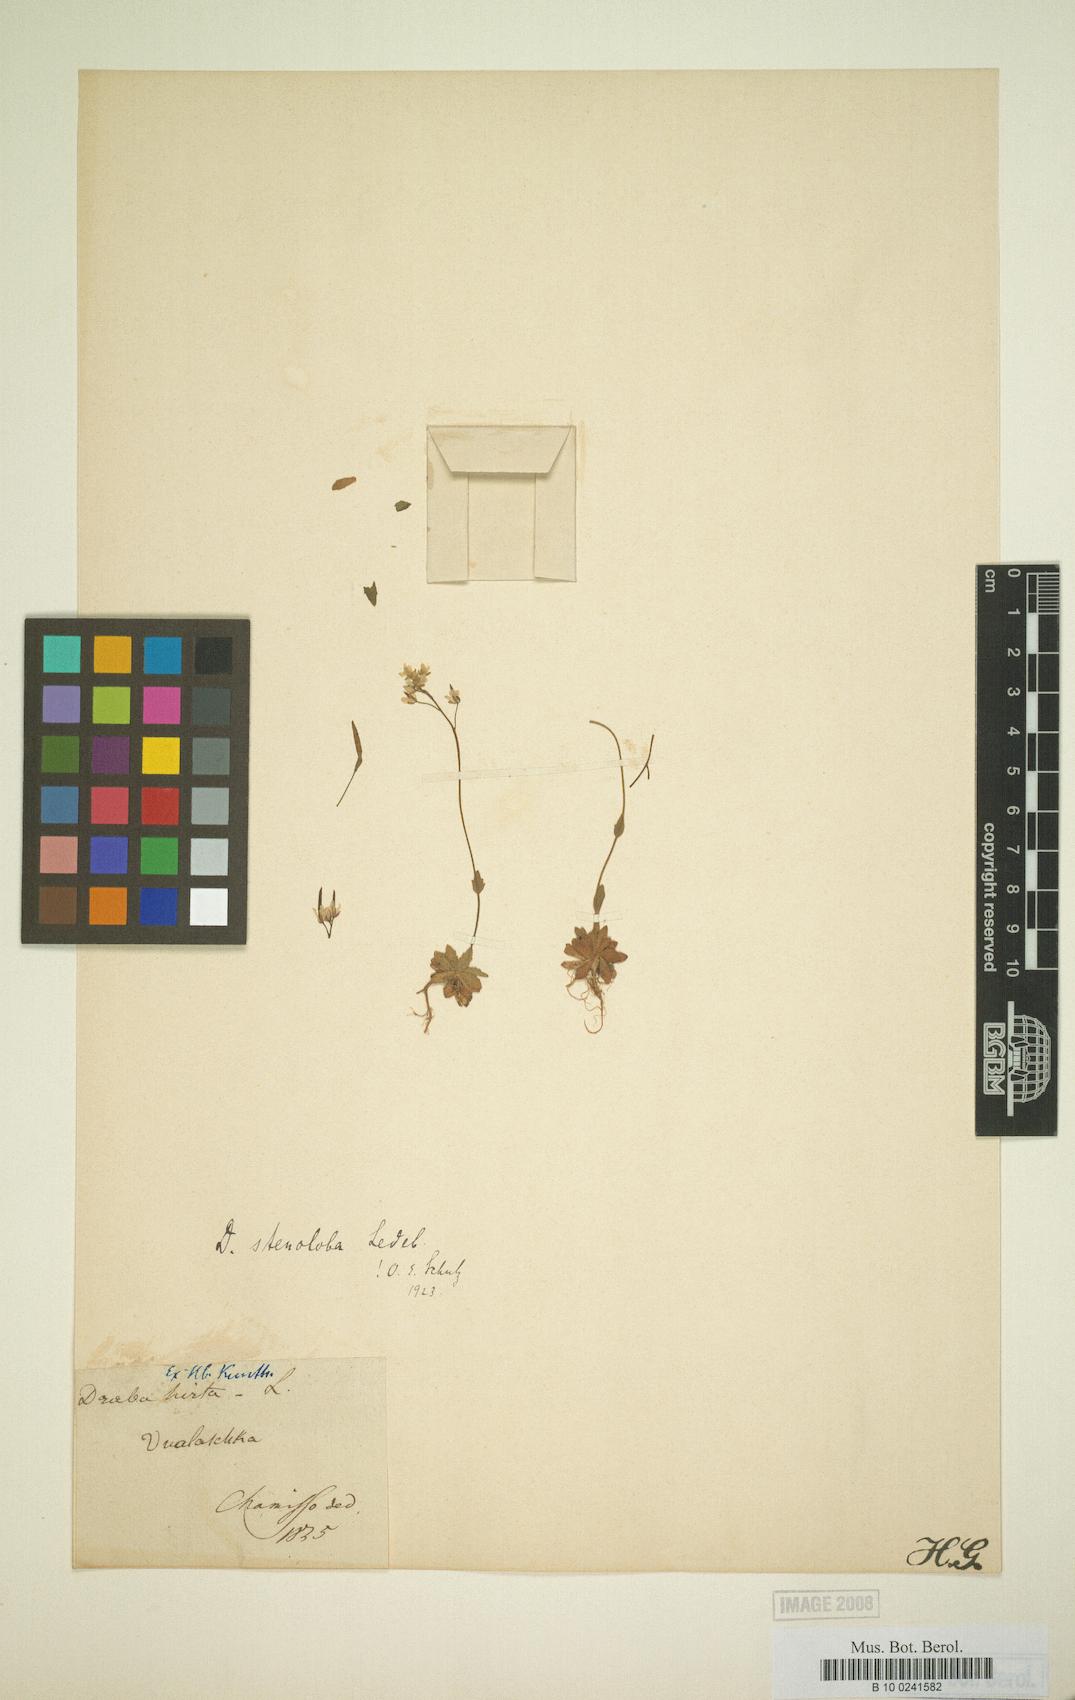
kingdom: Plantae
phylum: Tracheophyta
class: Magnoliopsida
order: Brassicales
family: Brassicaceae
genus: Draba
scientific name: Draba stenoloba
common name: Alaska draba
